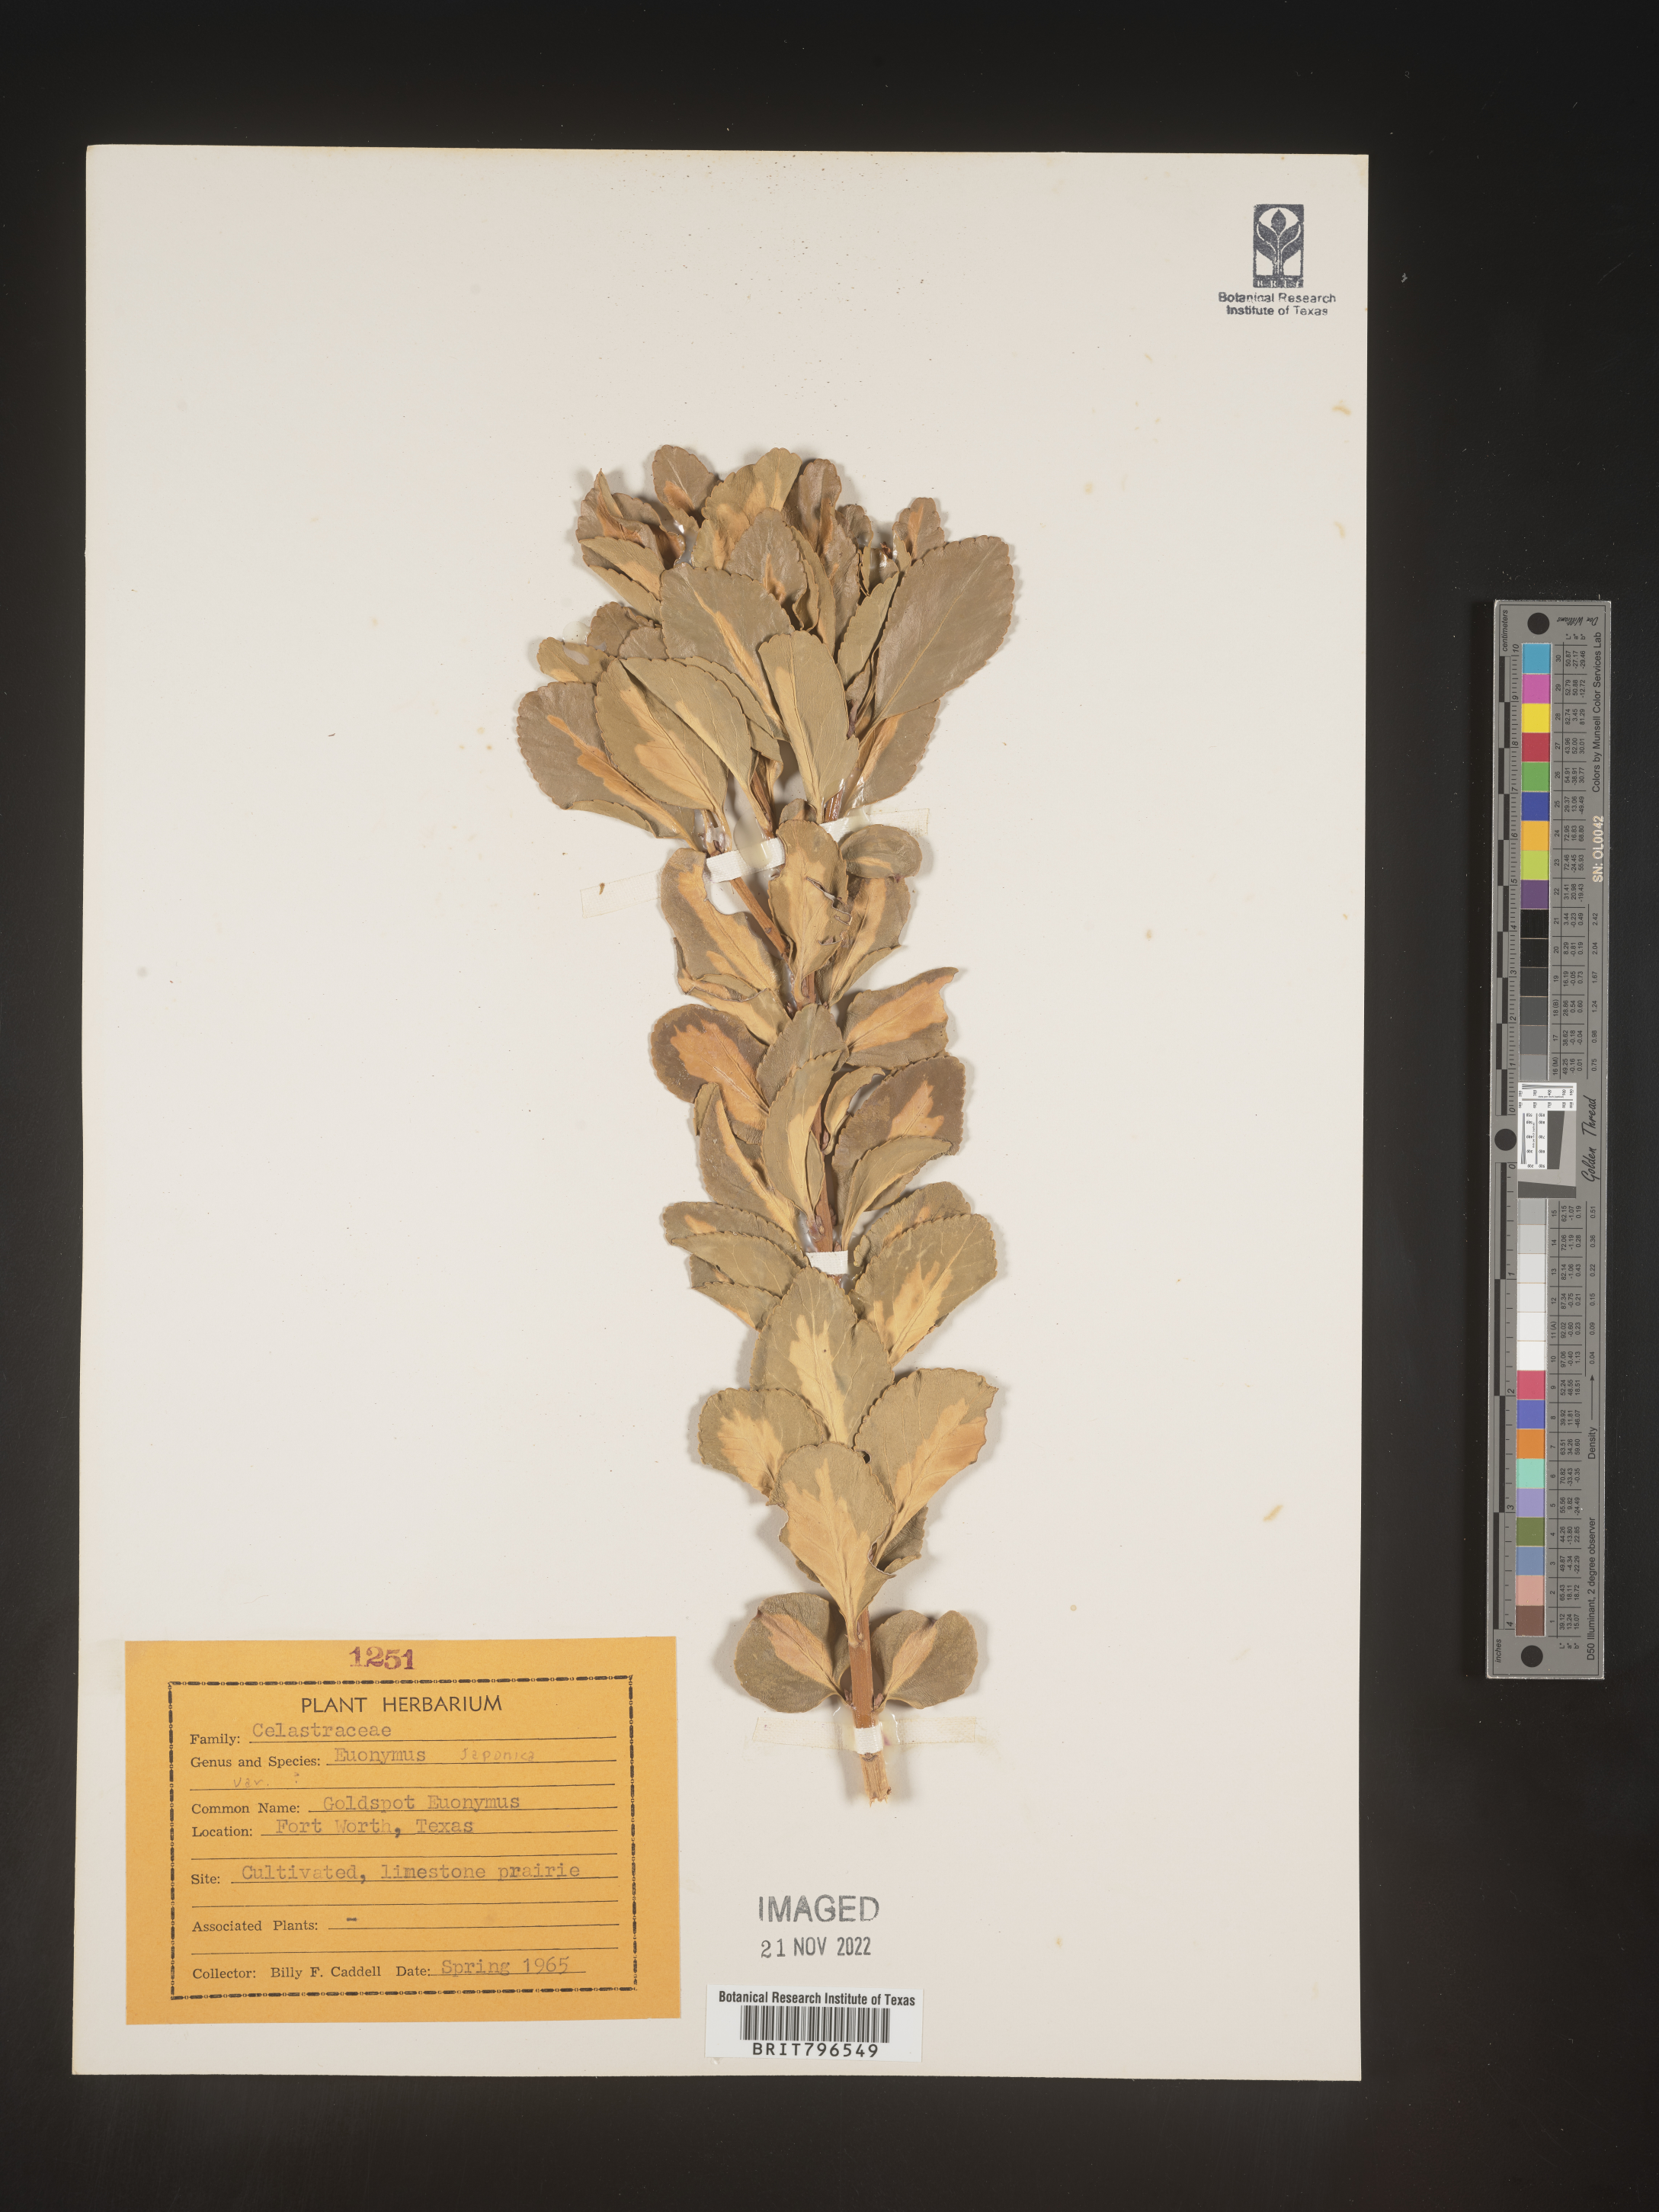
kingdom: Plantae
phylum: Tracheophyta
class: Magnoliopsida
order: Celastrales
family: Celastraceae
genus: Euonymus
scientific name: Euonymus
